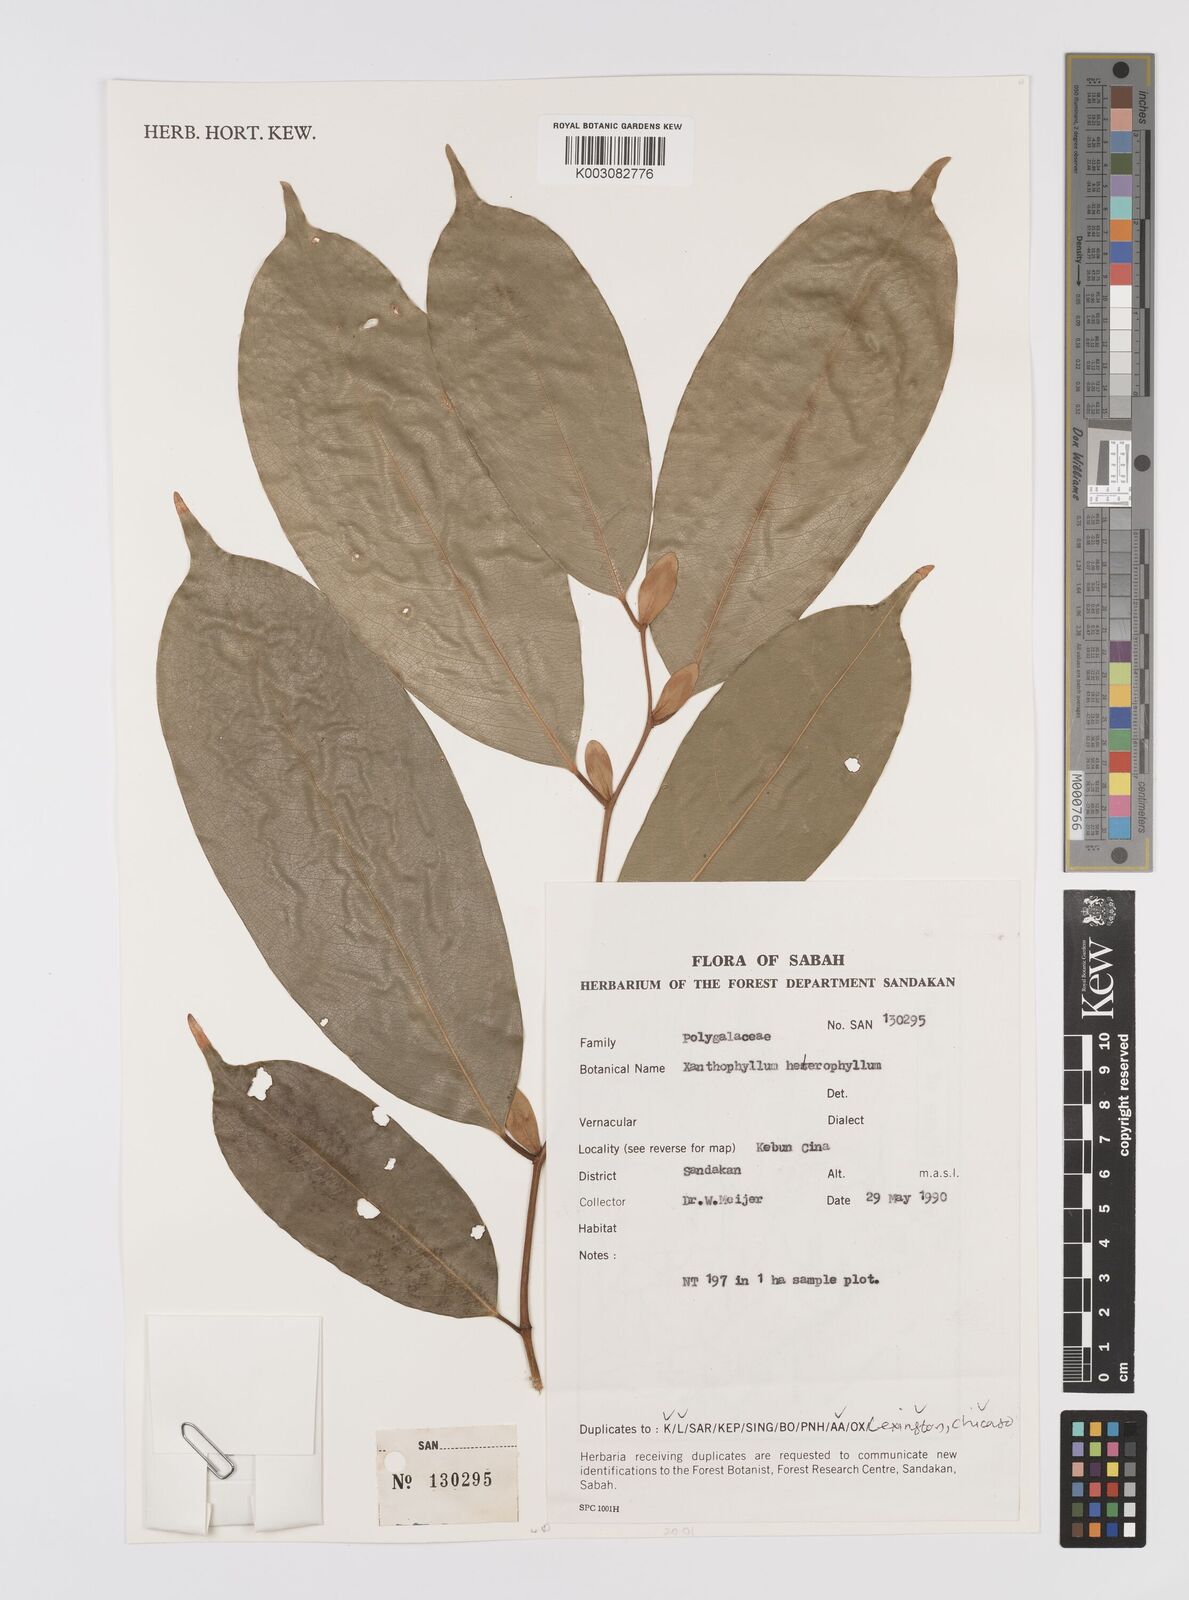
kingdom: Plantae
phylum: Tracheophyta
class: Magnoliopsida
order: Fabales
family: Polygalaceae
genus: Xanthophyllum
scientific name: Xanthophyllum heterophyllum
